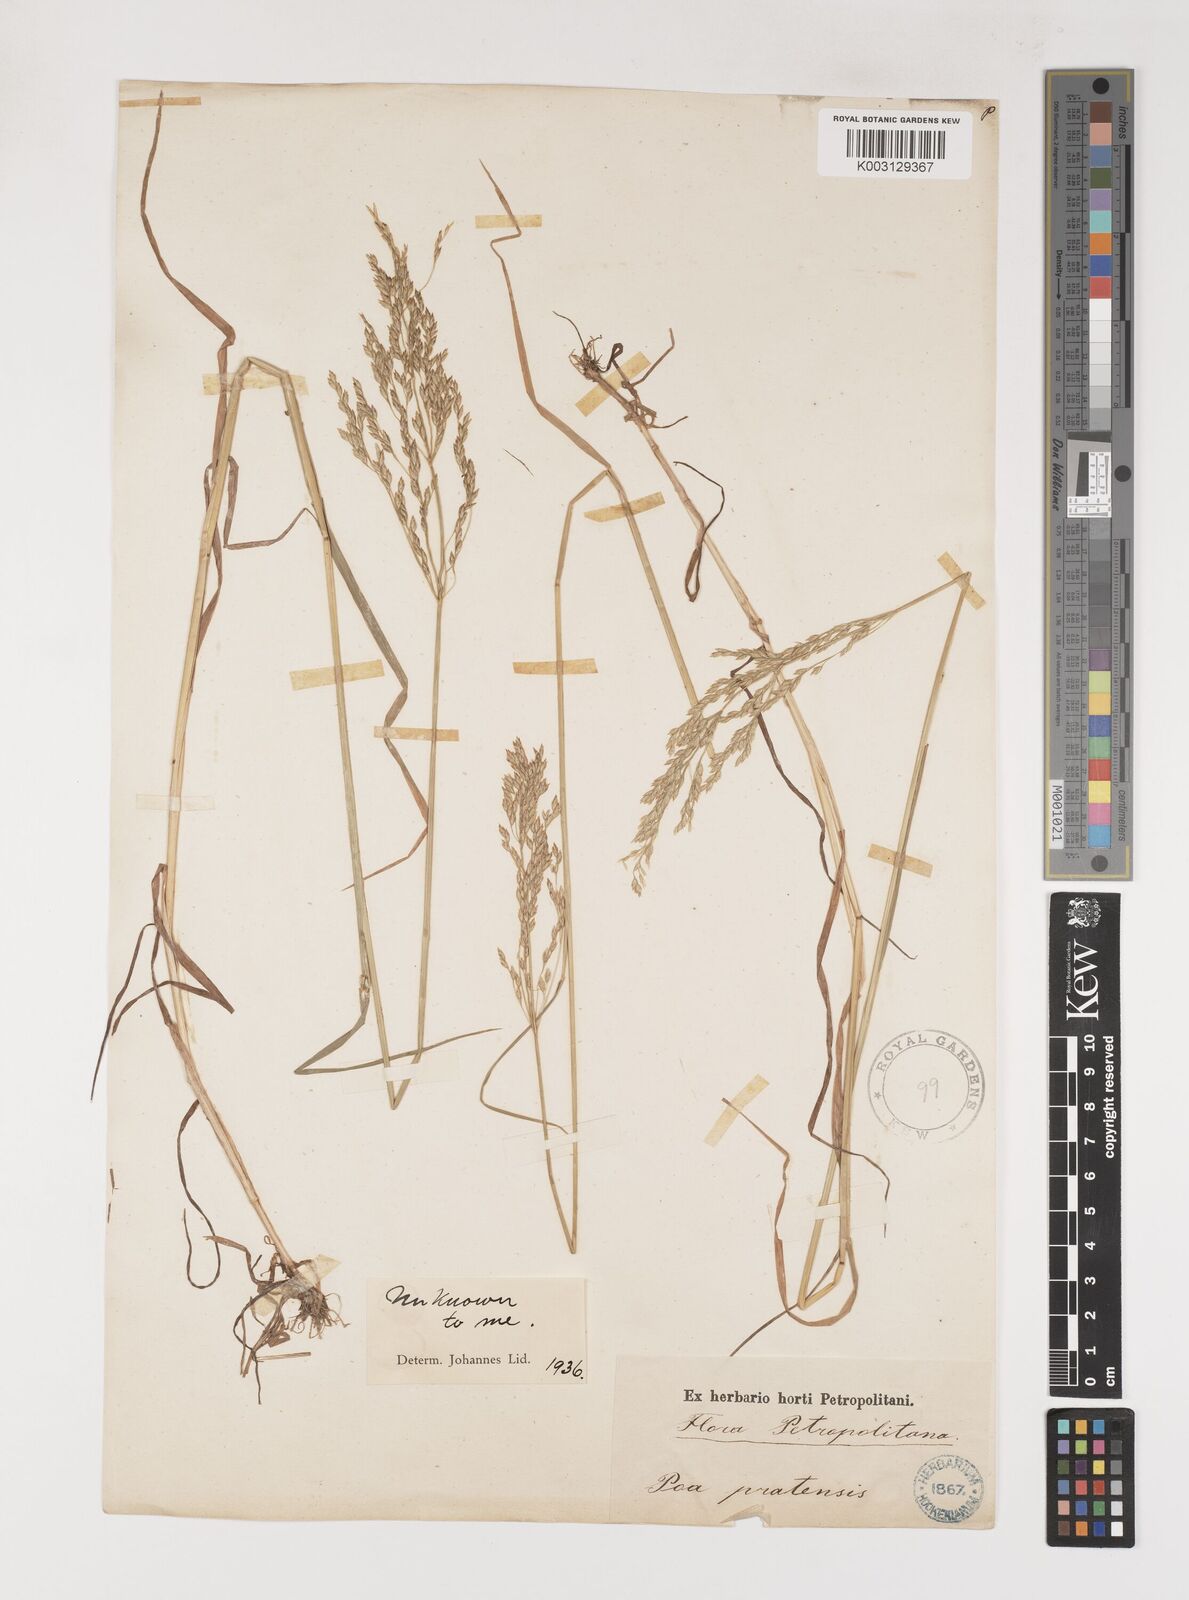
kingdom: Plantae
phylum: Tracheophyta
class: Liliopsida
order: Poales
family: Poaceae
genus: Poa
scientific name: Poa palustris
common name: Swamp meadow-grass
